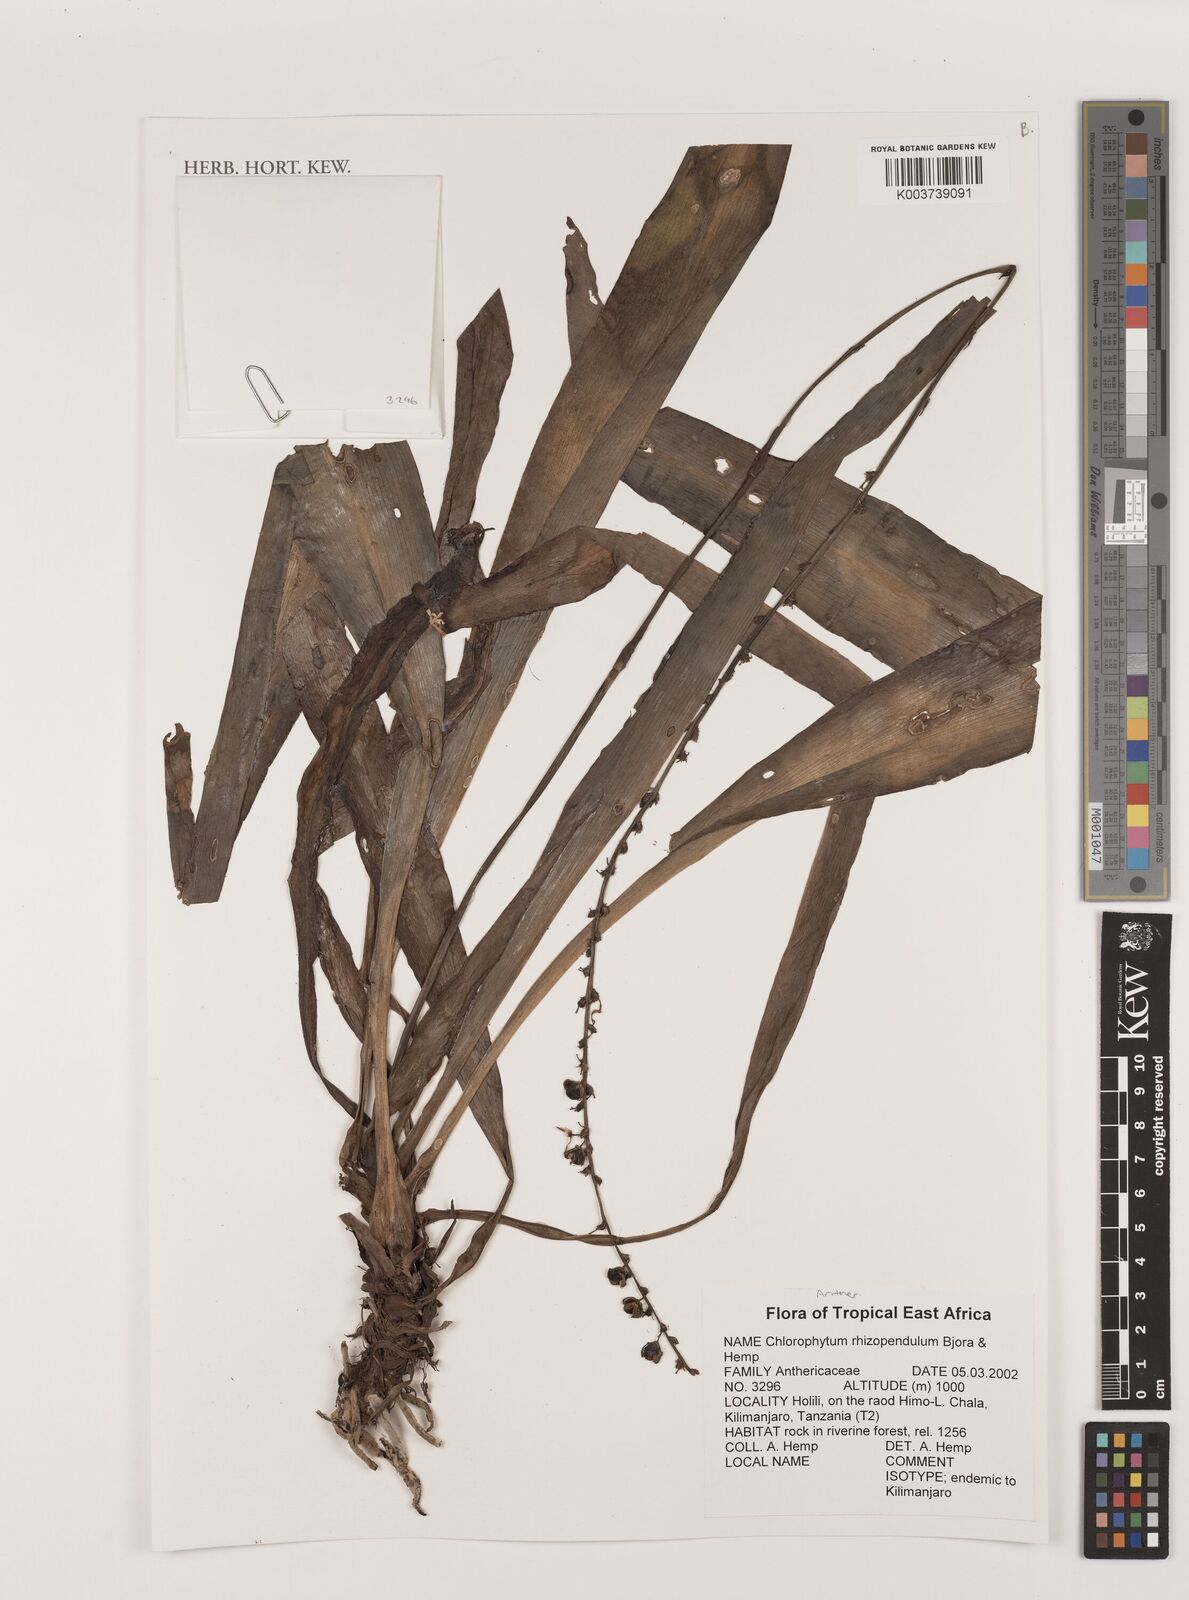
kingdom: Plantae
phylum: Tracheophyta
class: Liliopsida
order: Asparagales
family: Asparagaceae
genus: Chlorophytum
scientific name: Chlorophytum rhizopendulum
